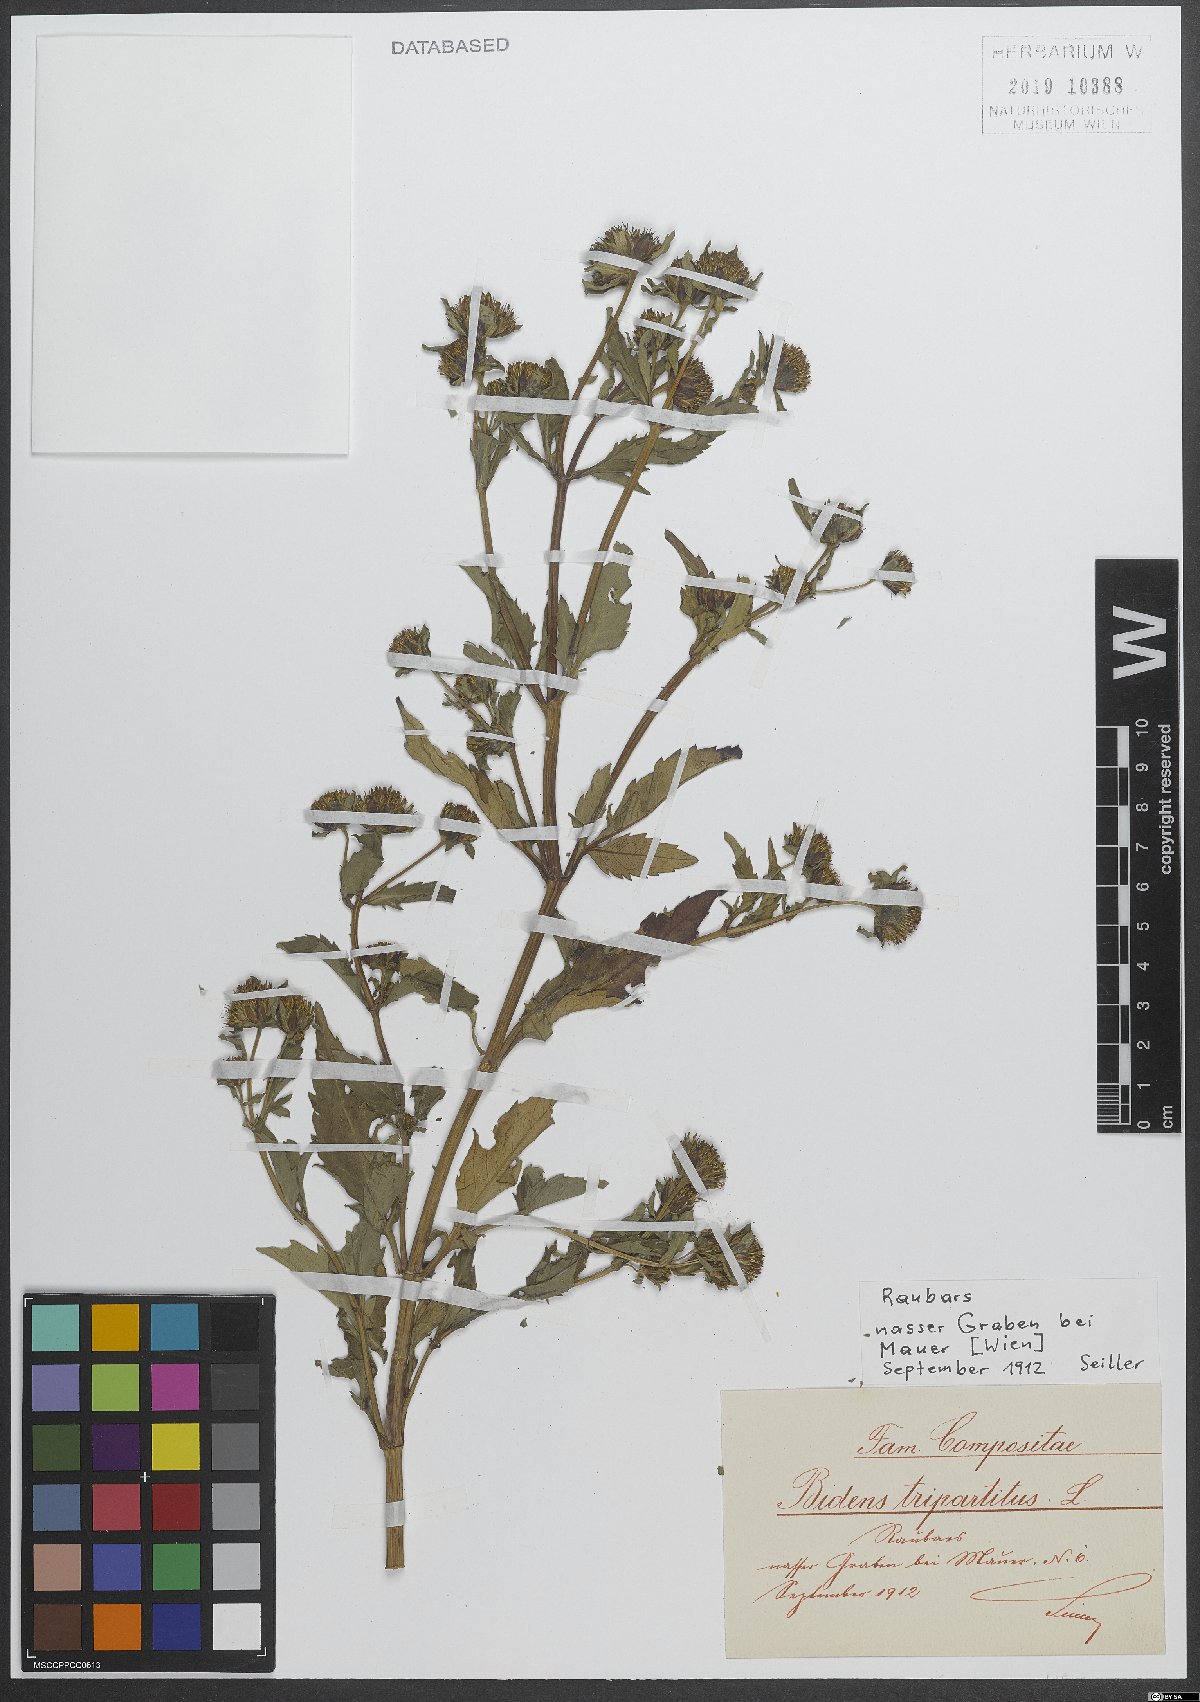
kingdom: Plantae
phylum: Tracheophyta
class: Magnoliopsida
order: Asterales
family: Asteraceae
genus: Bidens
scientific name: Bidens tripartita
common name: Trifid bur-marigold
